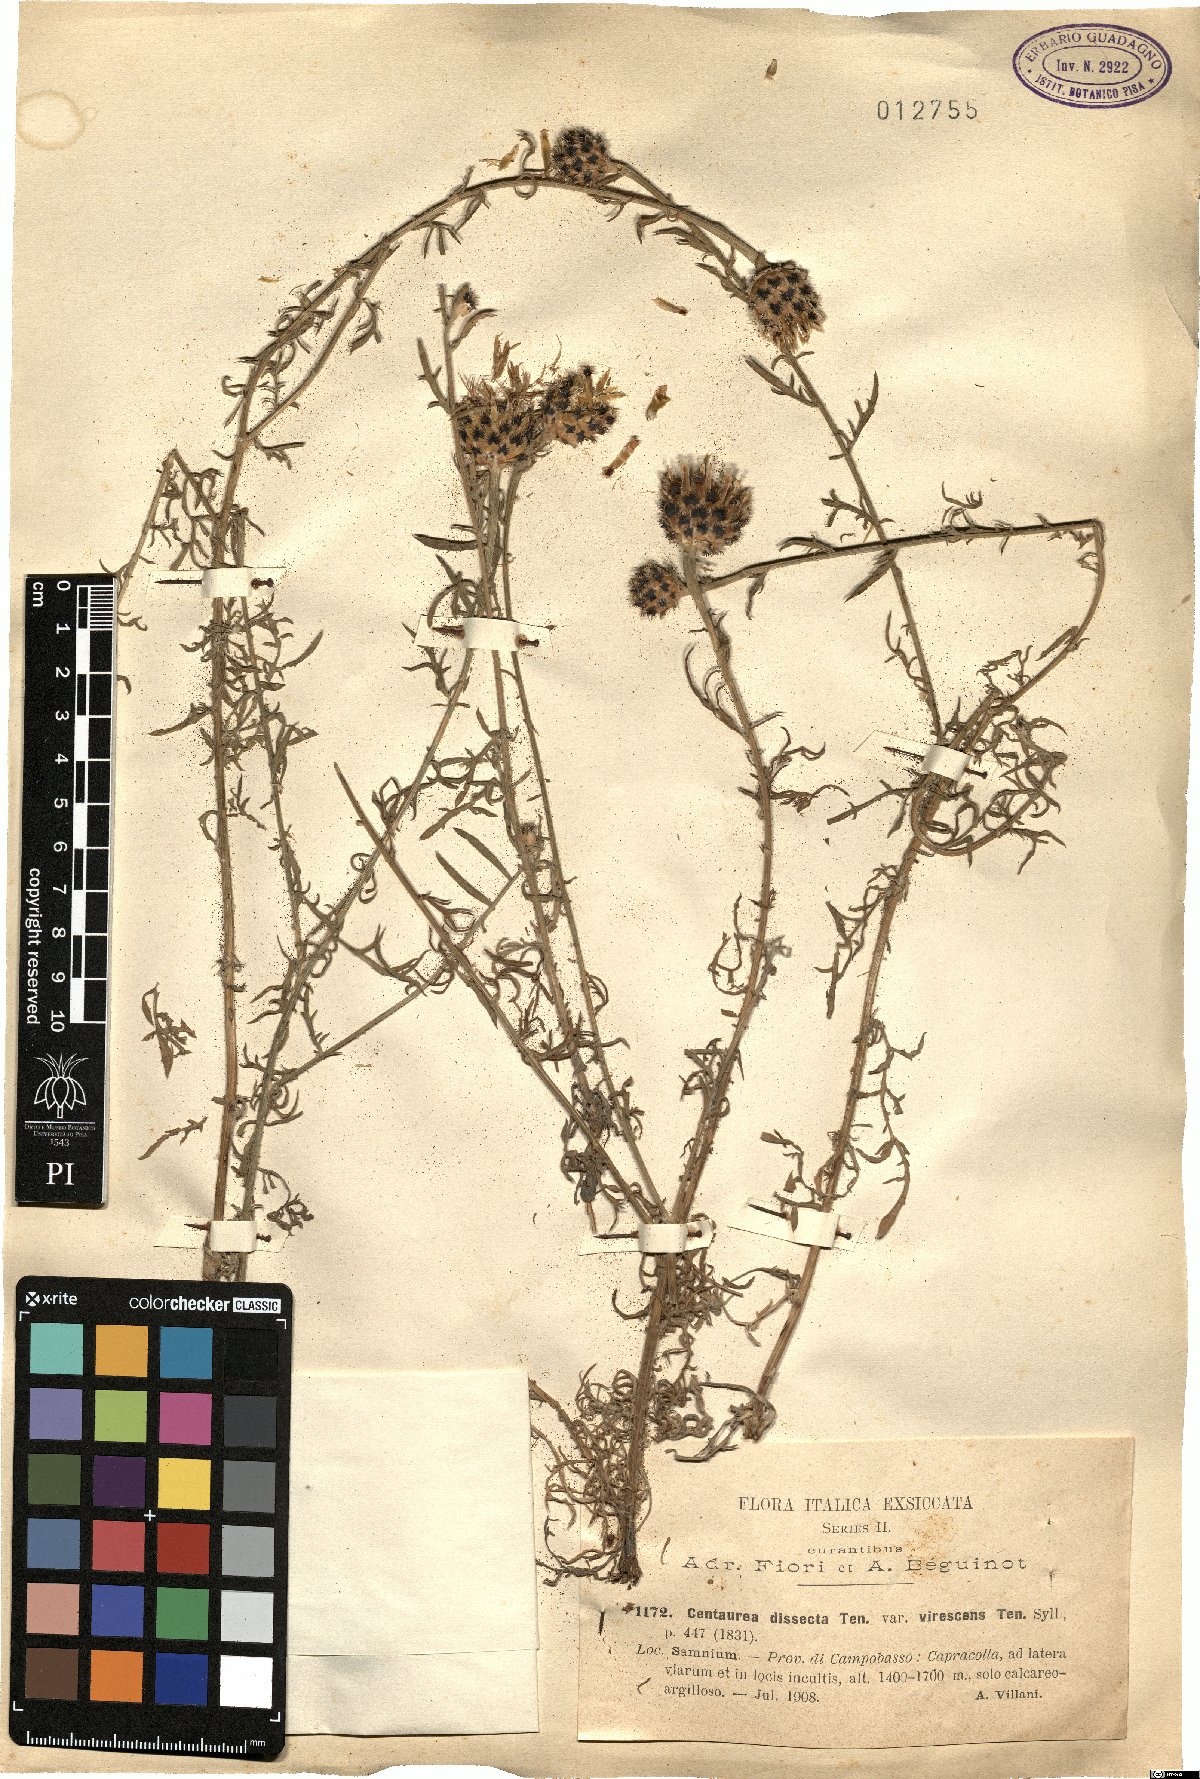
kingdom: Plantae
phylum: Tracheophyta
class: Magnoliopsida
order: Asterales
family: Asteraceae
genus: Centaurea
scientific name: Centaurea tenorei
